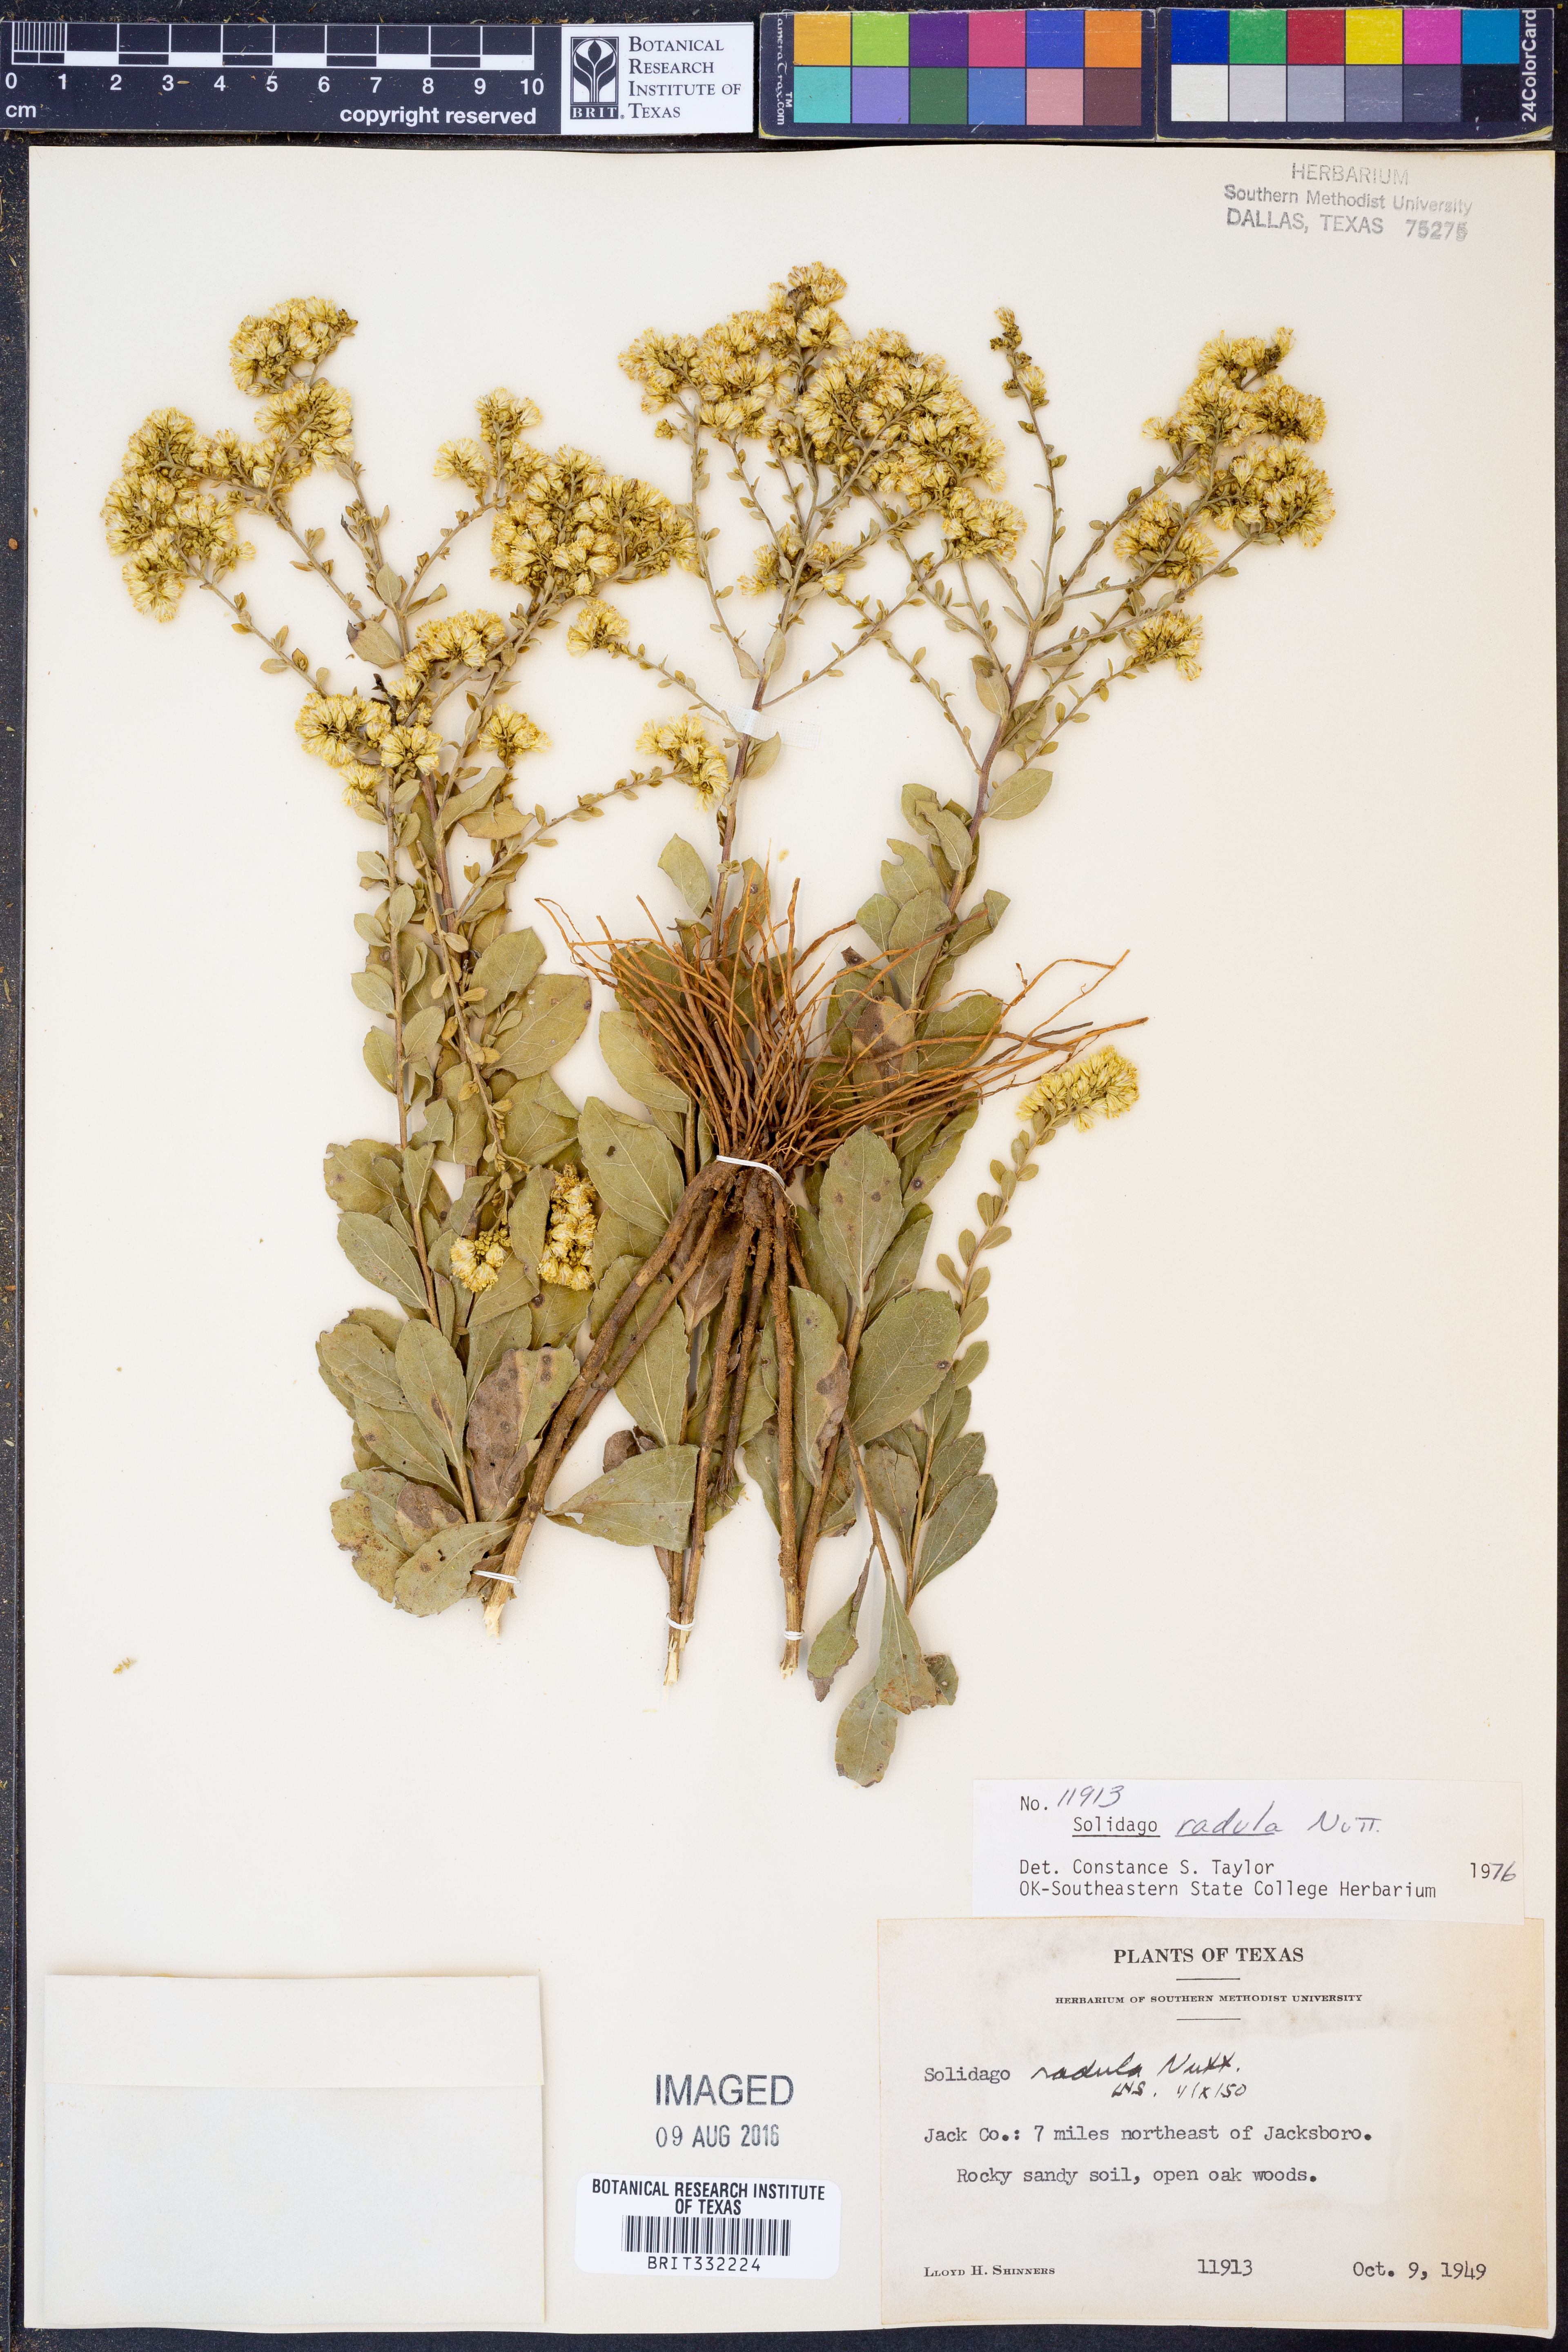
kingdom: Plantae
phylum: Tracheophyta
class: Magnoliopsida
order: Asterales
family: Asteraceae
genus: Solidago
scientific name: Solidago radula
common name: Western rough goldenrod
